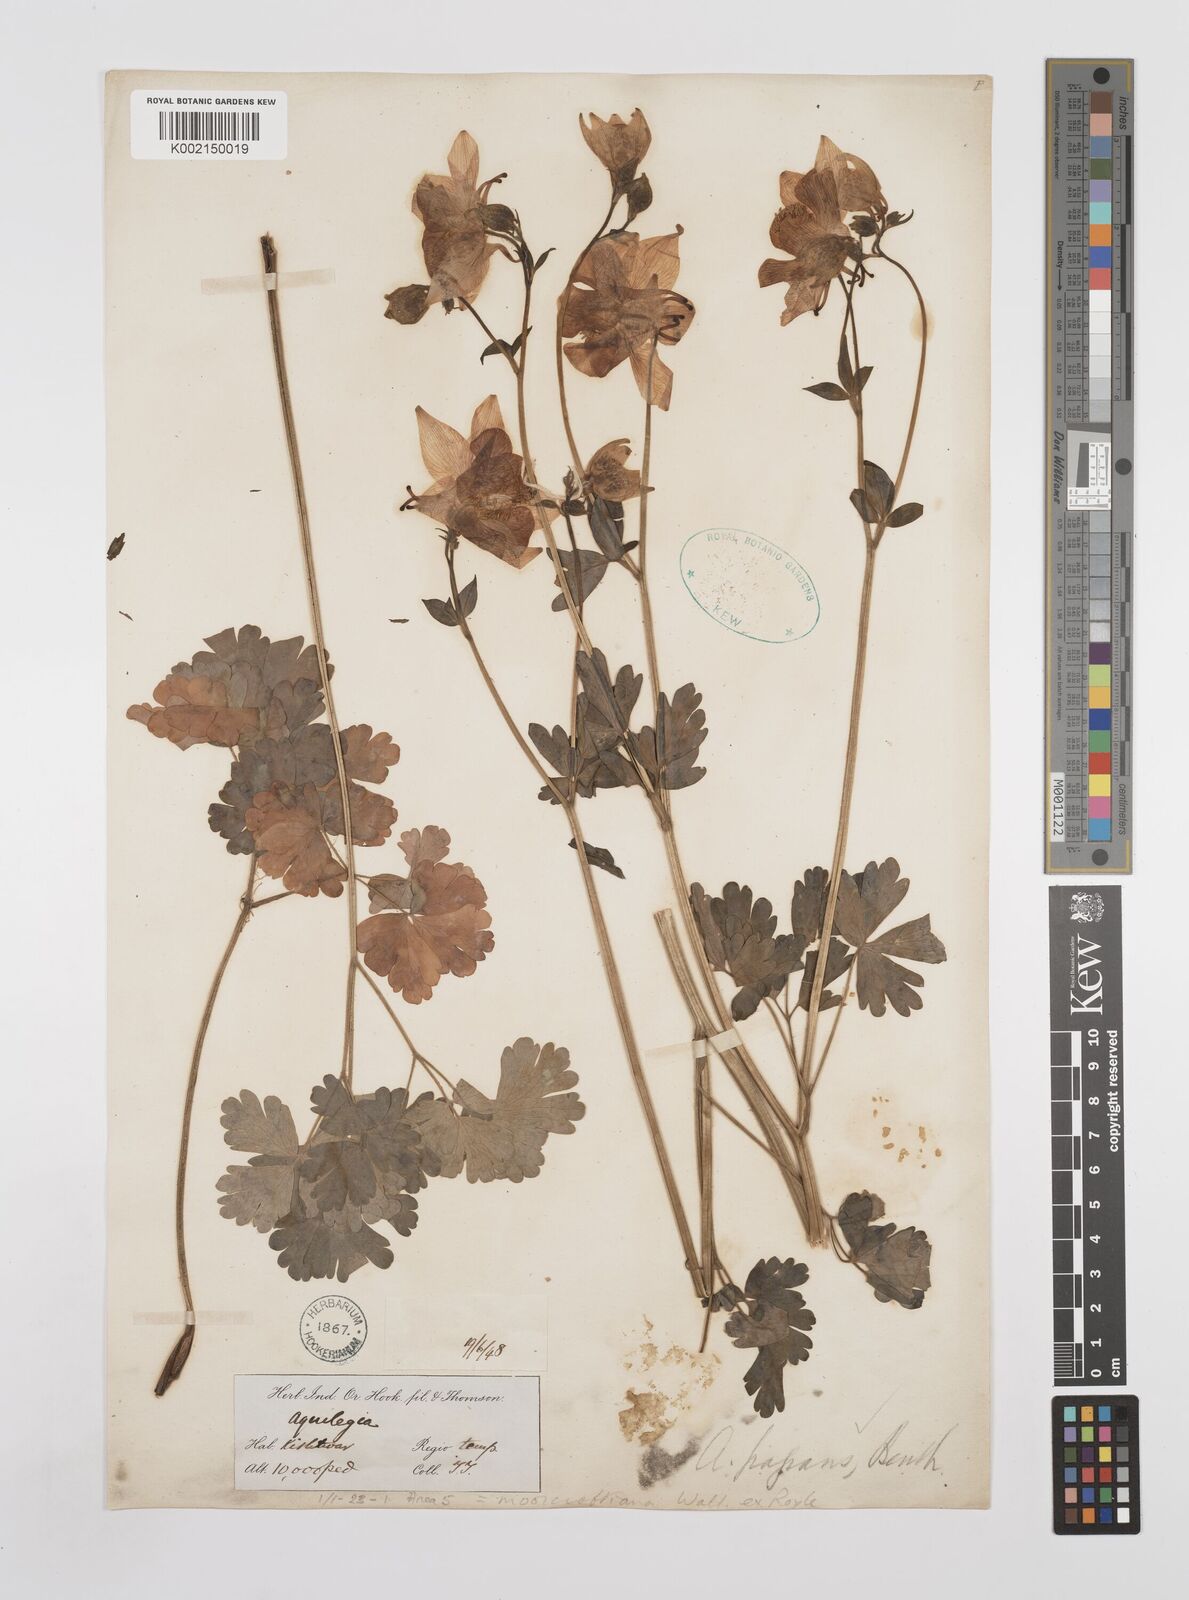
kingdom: Plantae
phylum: Tracheophyta
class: Magnoliopsida
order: Ranunculales
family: Ranunculaceae
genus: Aquilegia
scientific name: Aquilegia fragrans
